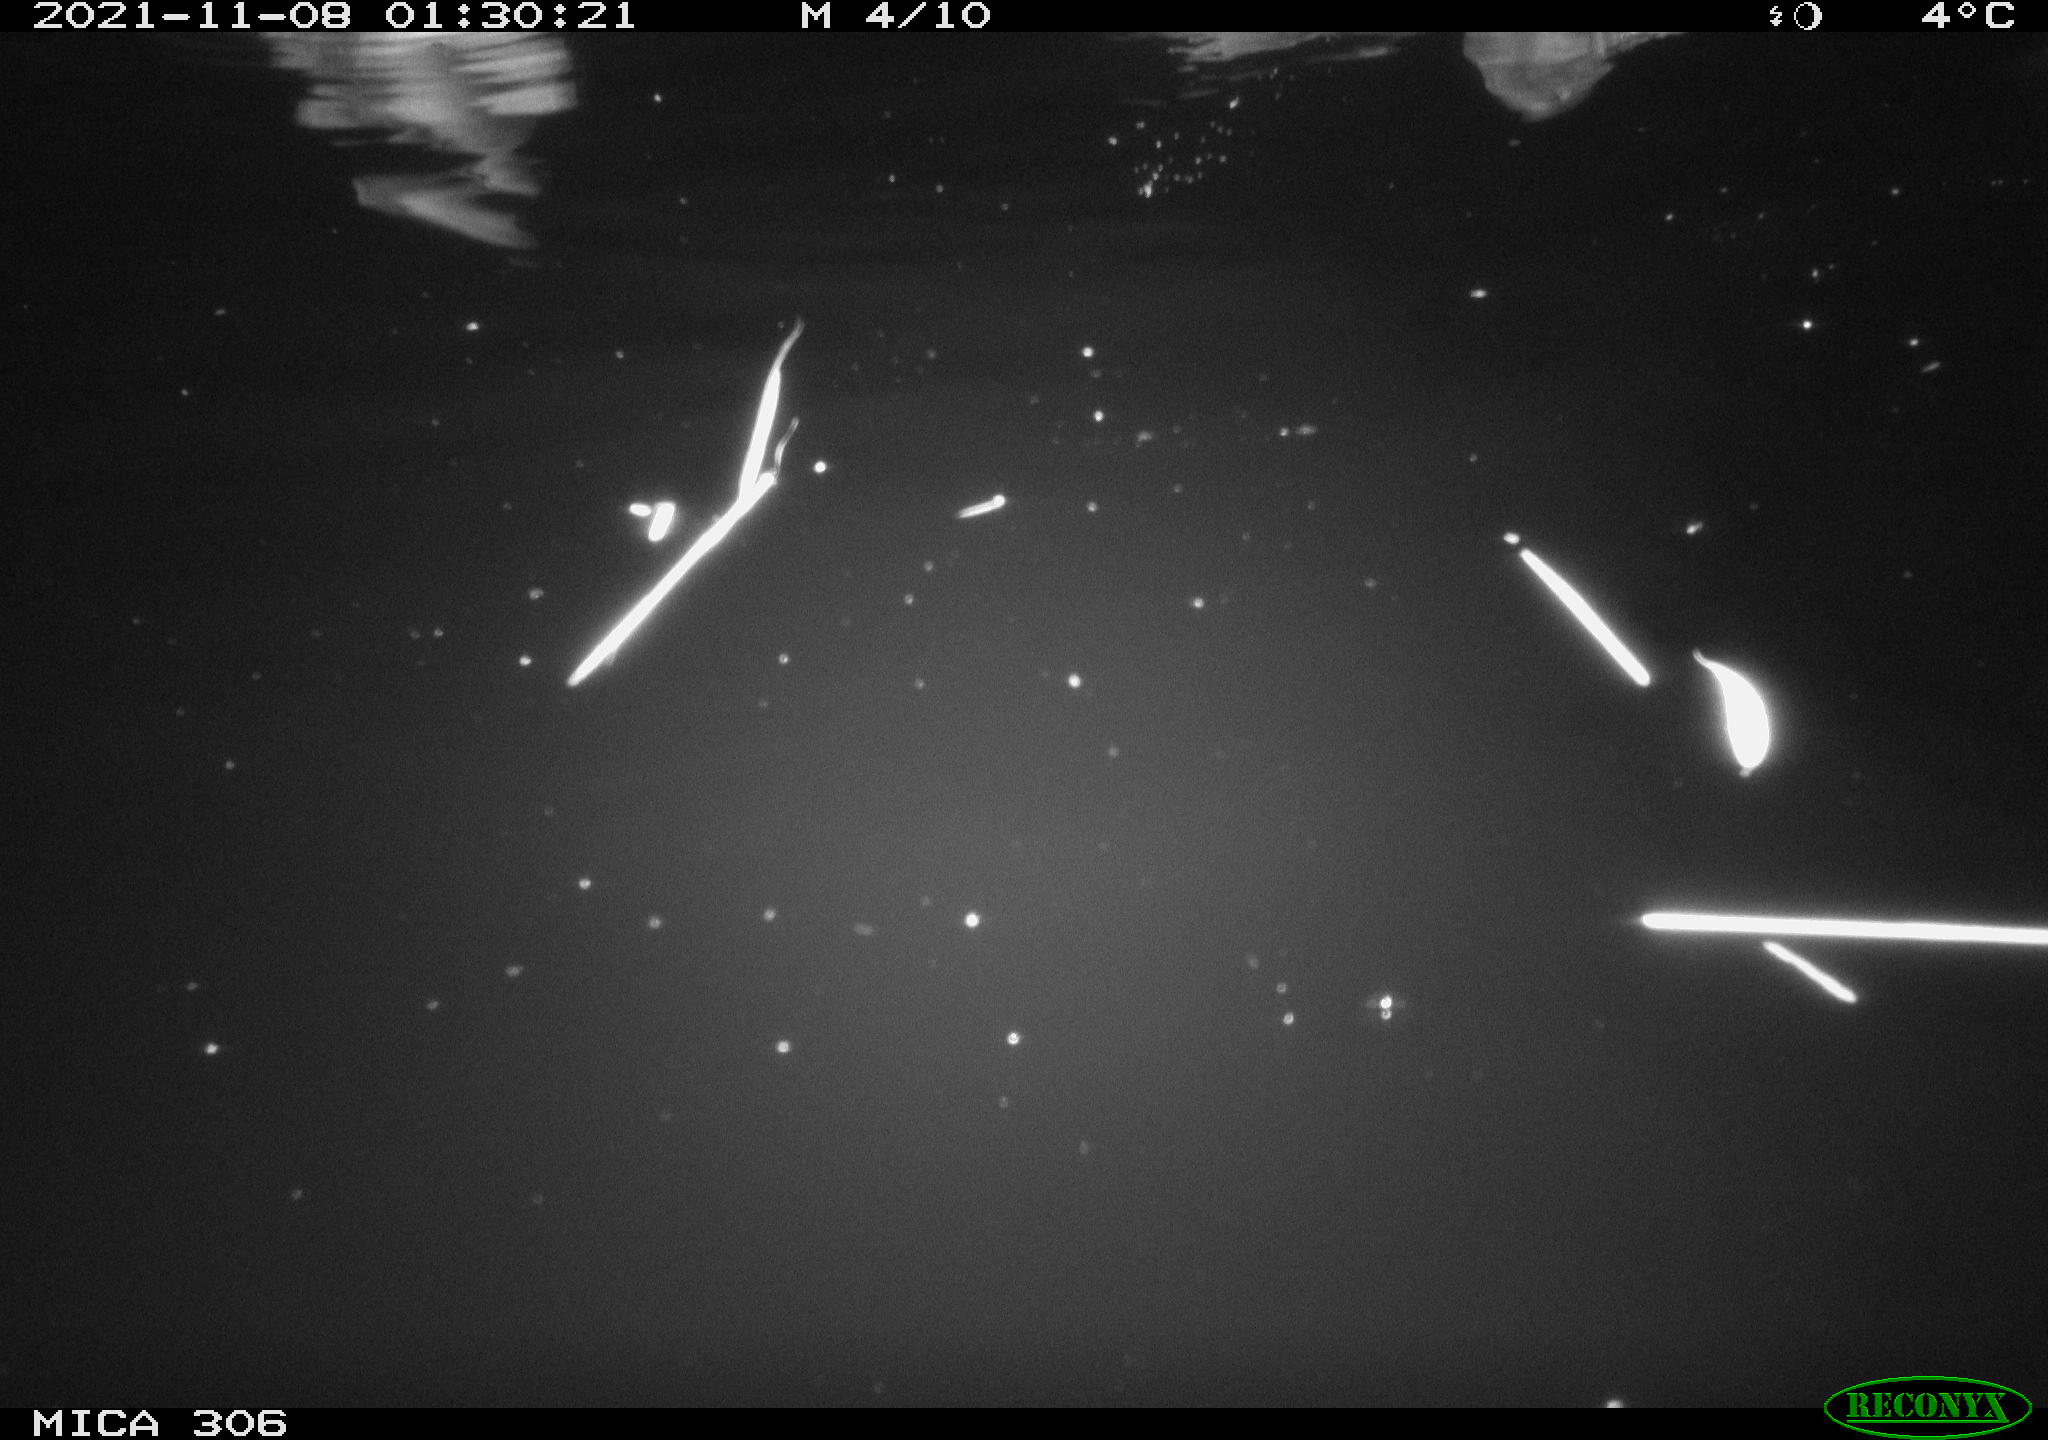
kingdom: Animalia
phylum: Chordata
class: Aves
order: Anseriformes
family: Anatidae
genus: Anas
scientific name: Anas platyrhynchos
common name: Mallard
